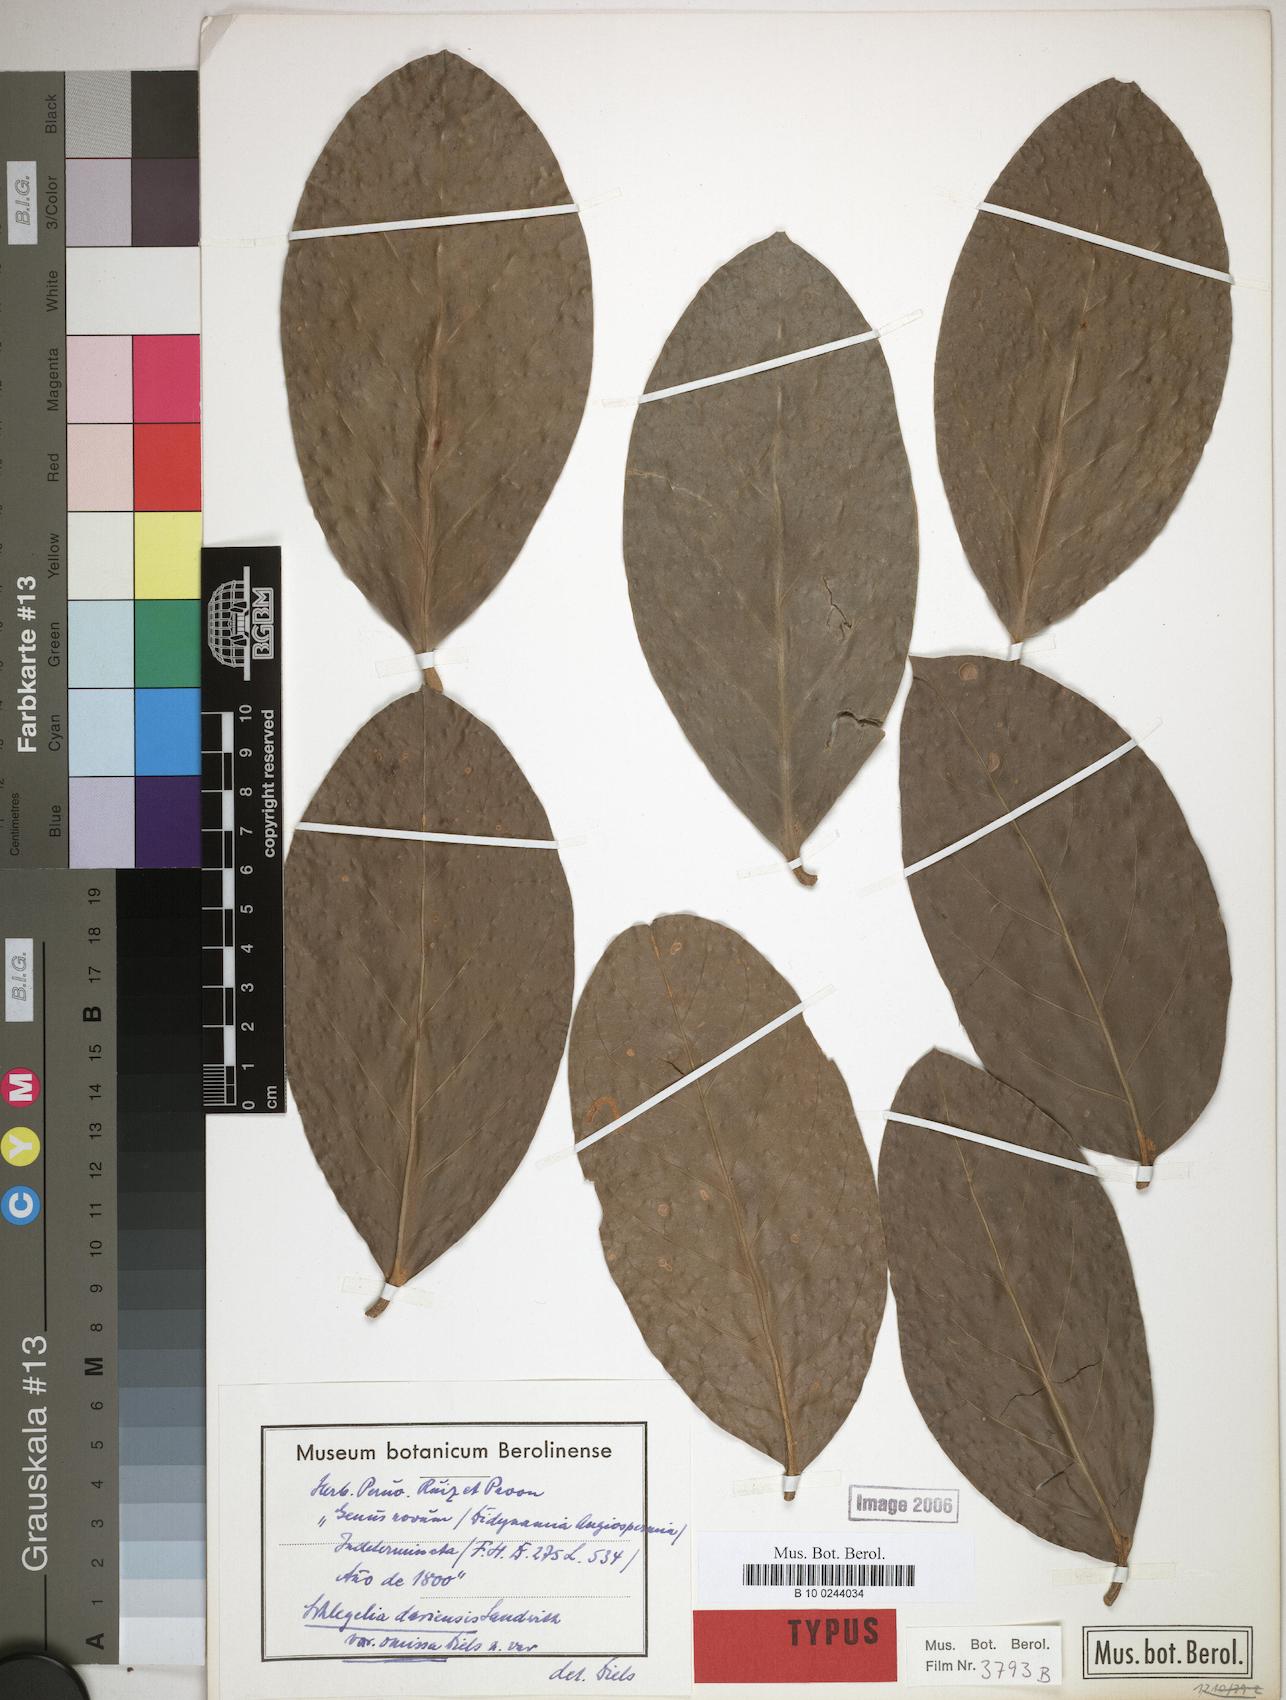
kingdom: Plantae
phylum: Tracheophyta
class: Magnoliopsida
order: Lamiales
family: Schlegeliaceae
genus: Schlegelia
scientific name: Schlegelia darienensis
